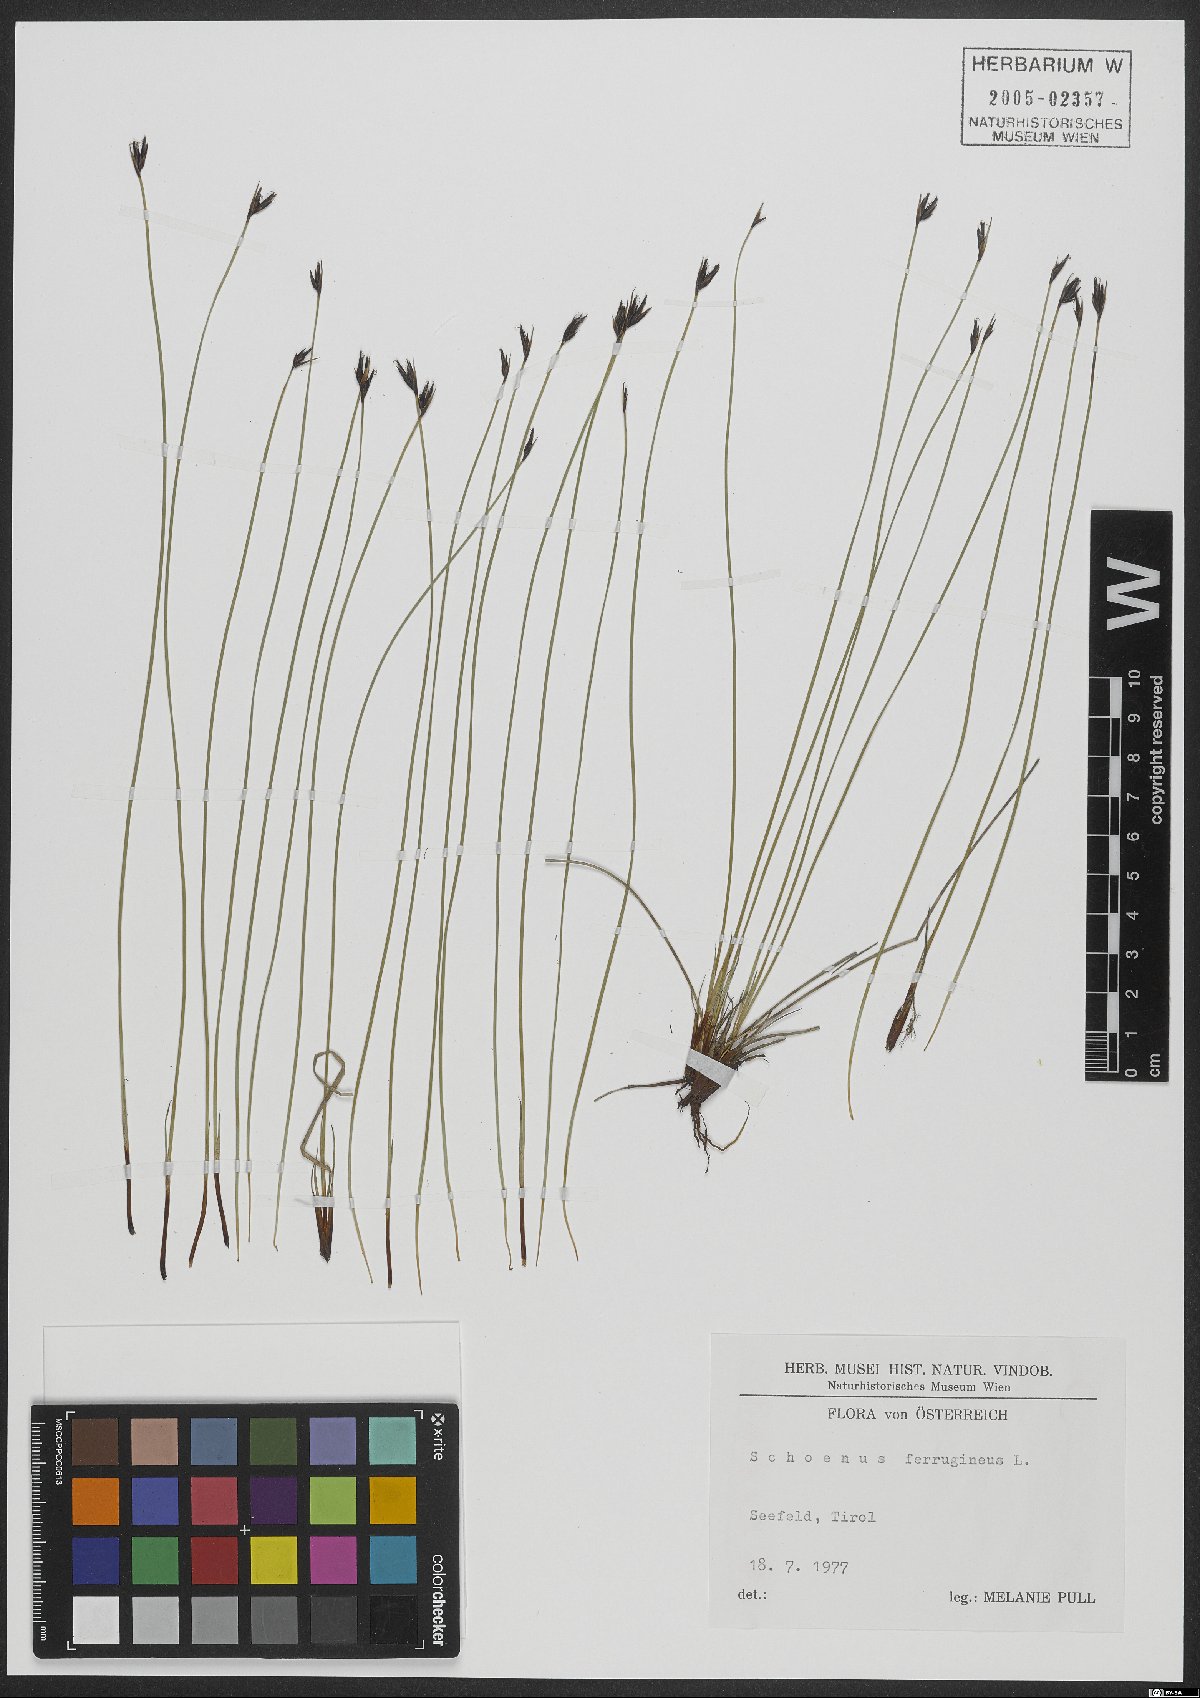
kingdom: Plantae
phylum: Tracheophyta
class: Liliopsida
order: Poales
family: Cyperaceae
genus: Schoenus
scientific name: Schoenus ferrugineus
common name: Brown bog-rush
